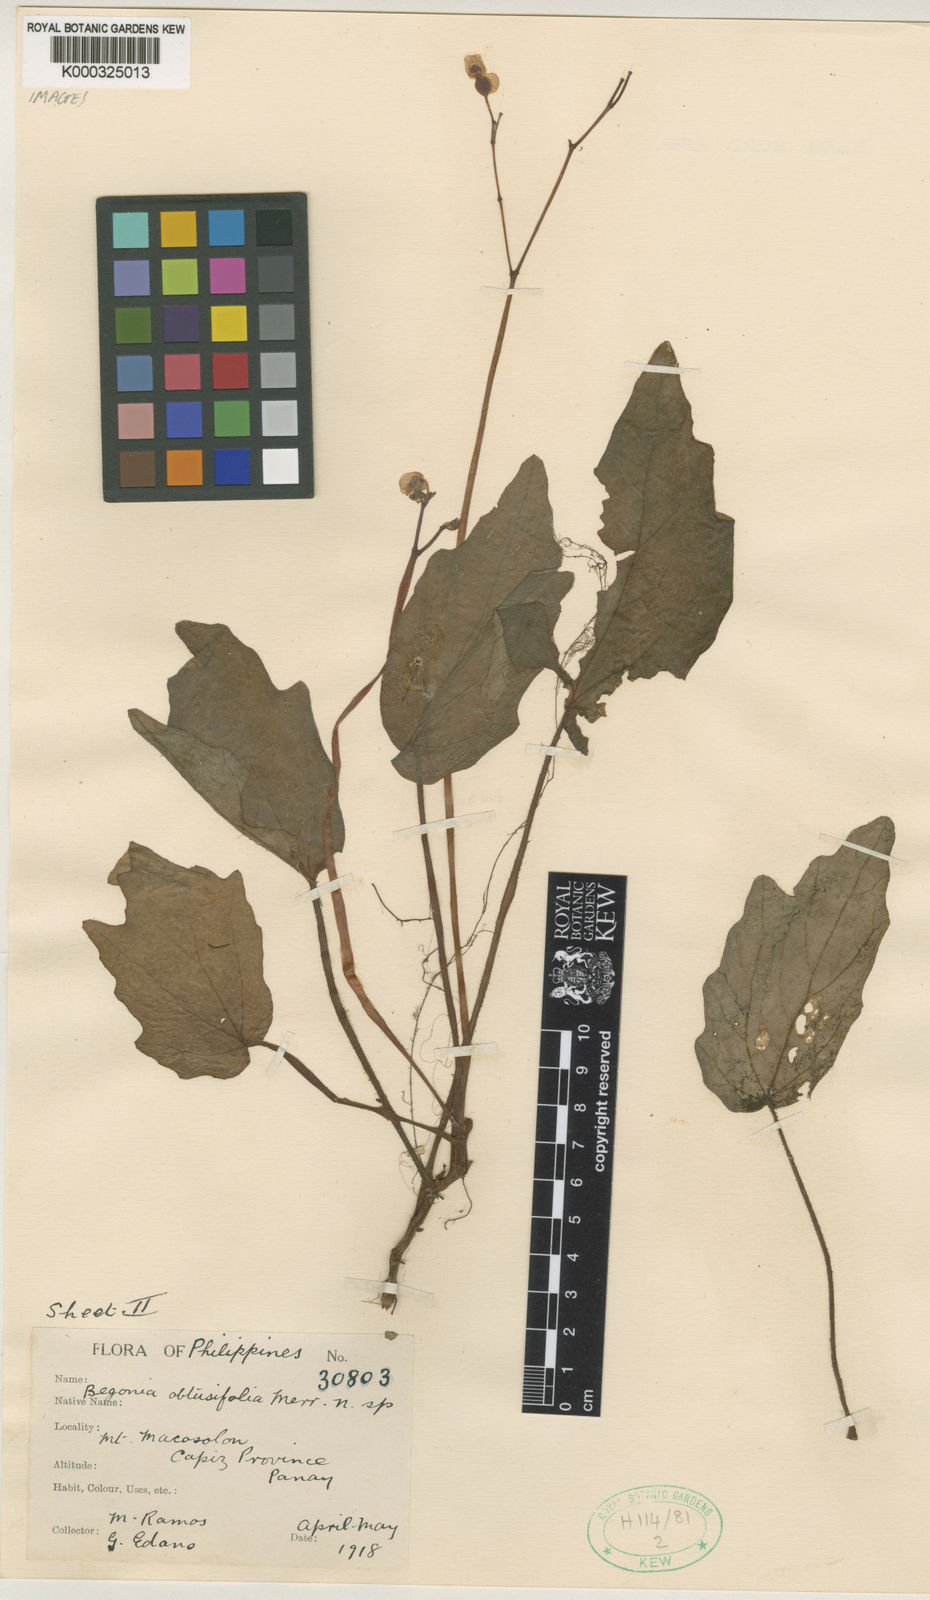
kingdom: Plantae
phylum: Tracheophyta
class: Magnoliopsida
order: Cucurbitales
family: Begoniaceae
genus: Begonia
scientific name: Begonia obtusifolia
